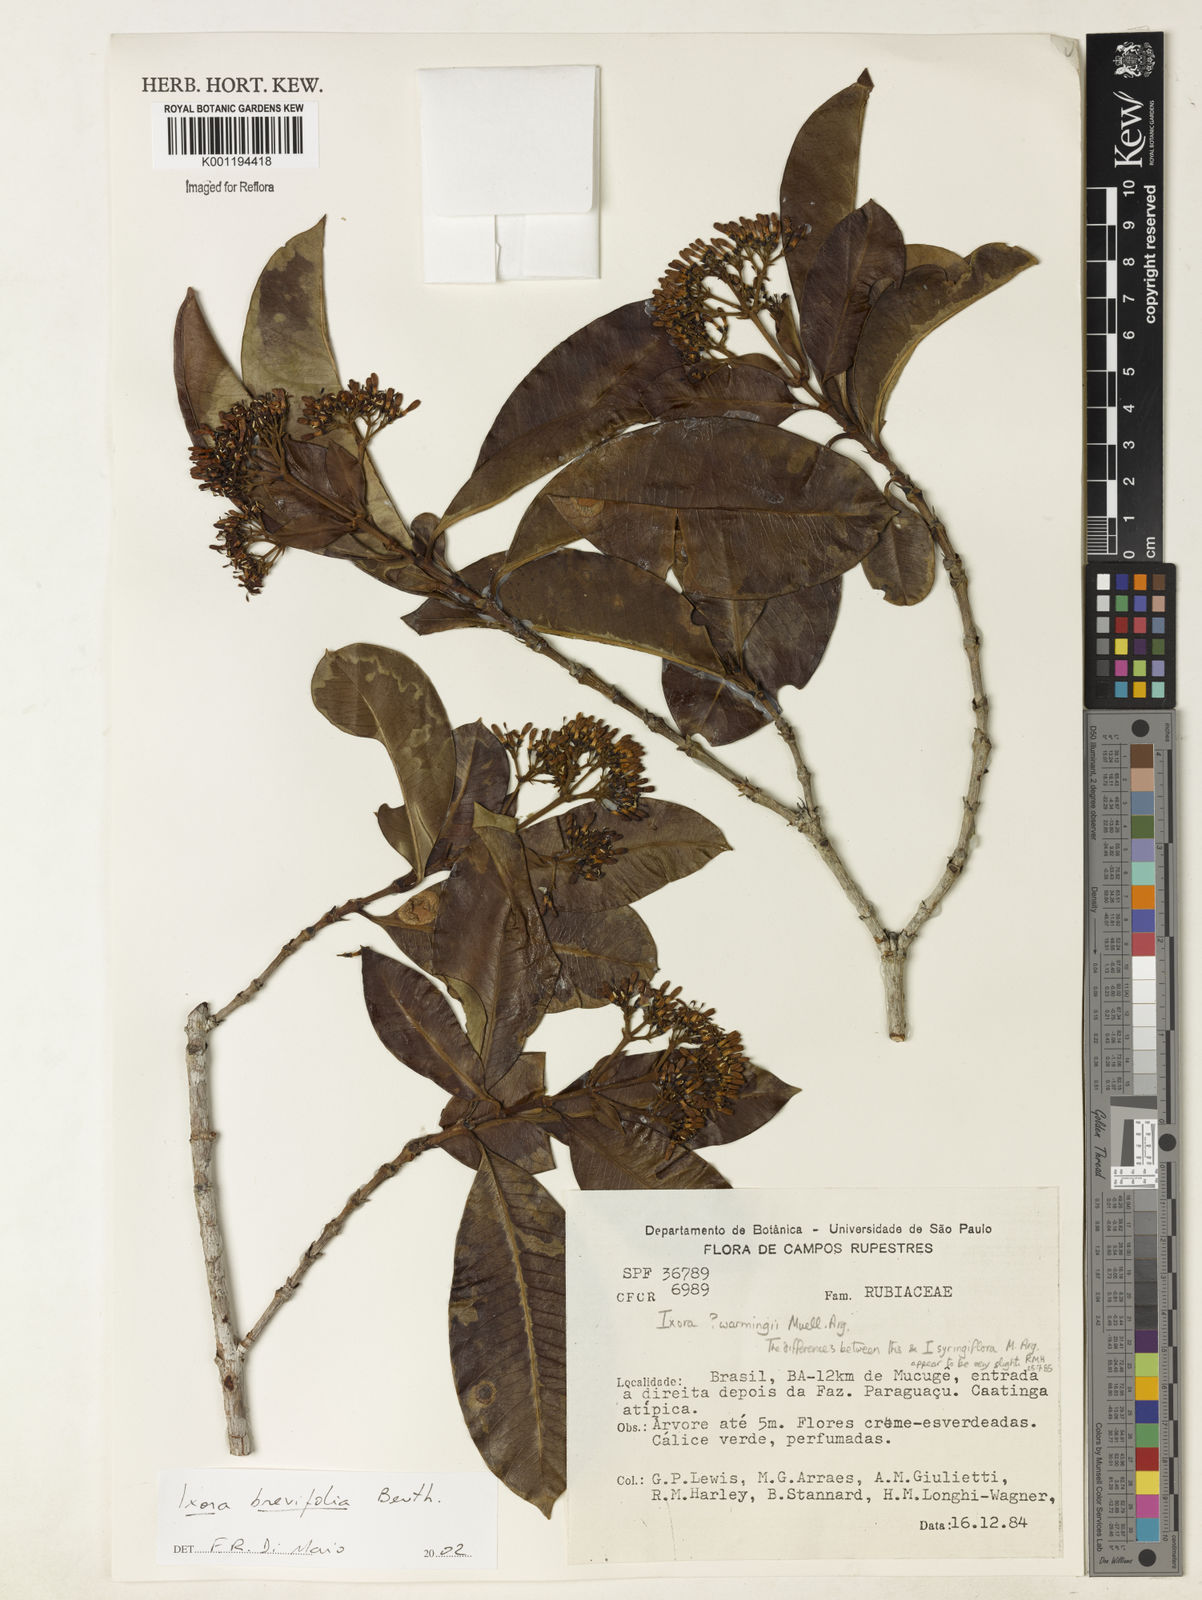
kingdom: Plantae
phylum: Tracheophyta
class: Magnoliopsida
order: Gentianales
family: Rubiaceae
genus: Ixora
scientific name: Ixora brevifolia
